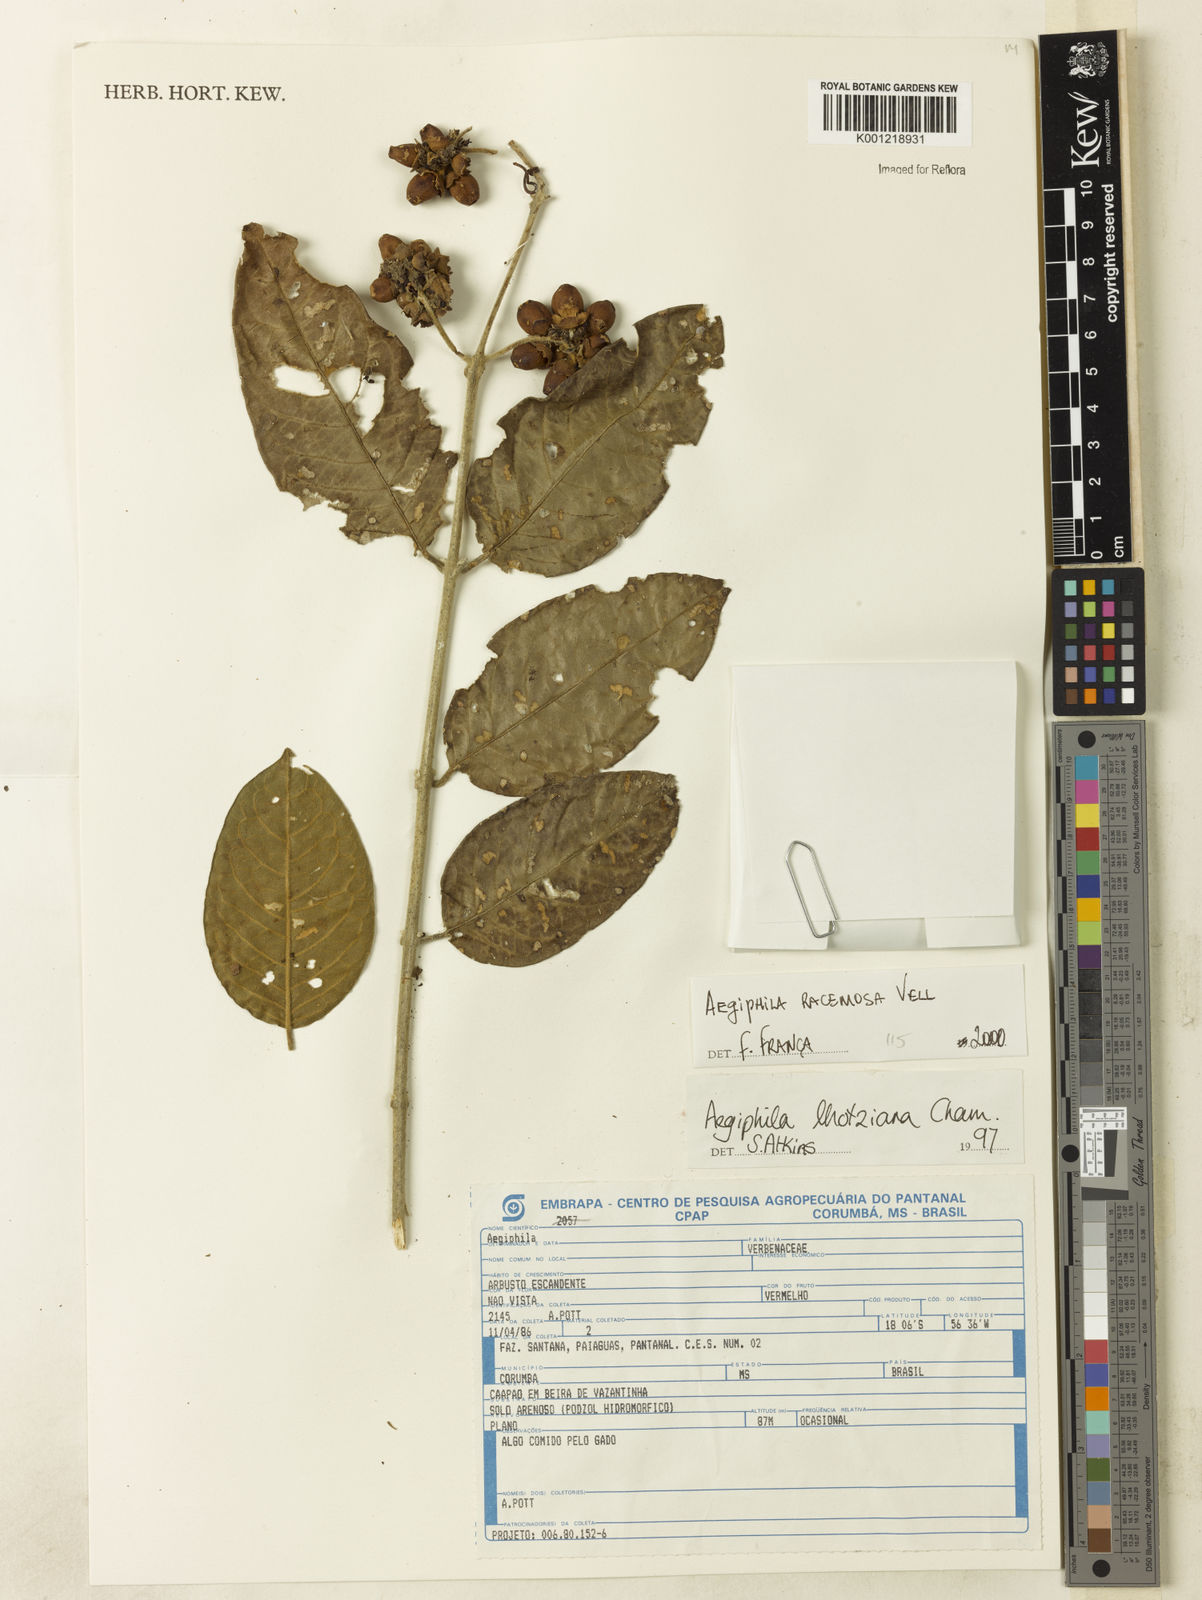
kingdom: Plantae
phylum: Tracheophyta
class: Magnoliopsida
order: Lamiales
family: Lamiaceae
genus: Aegiphila
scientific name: Aegiphila racemosa
